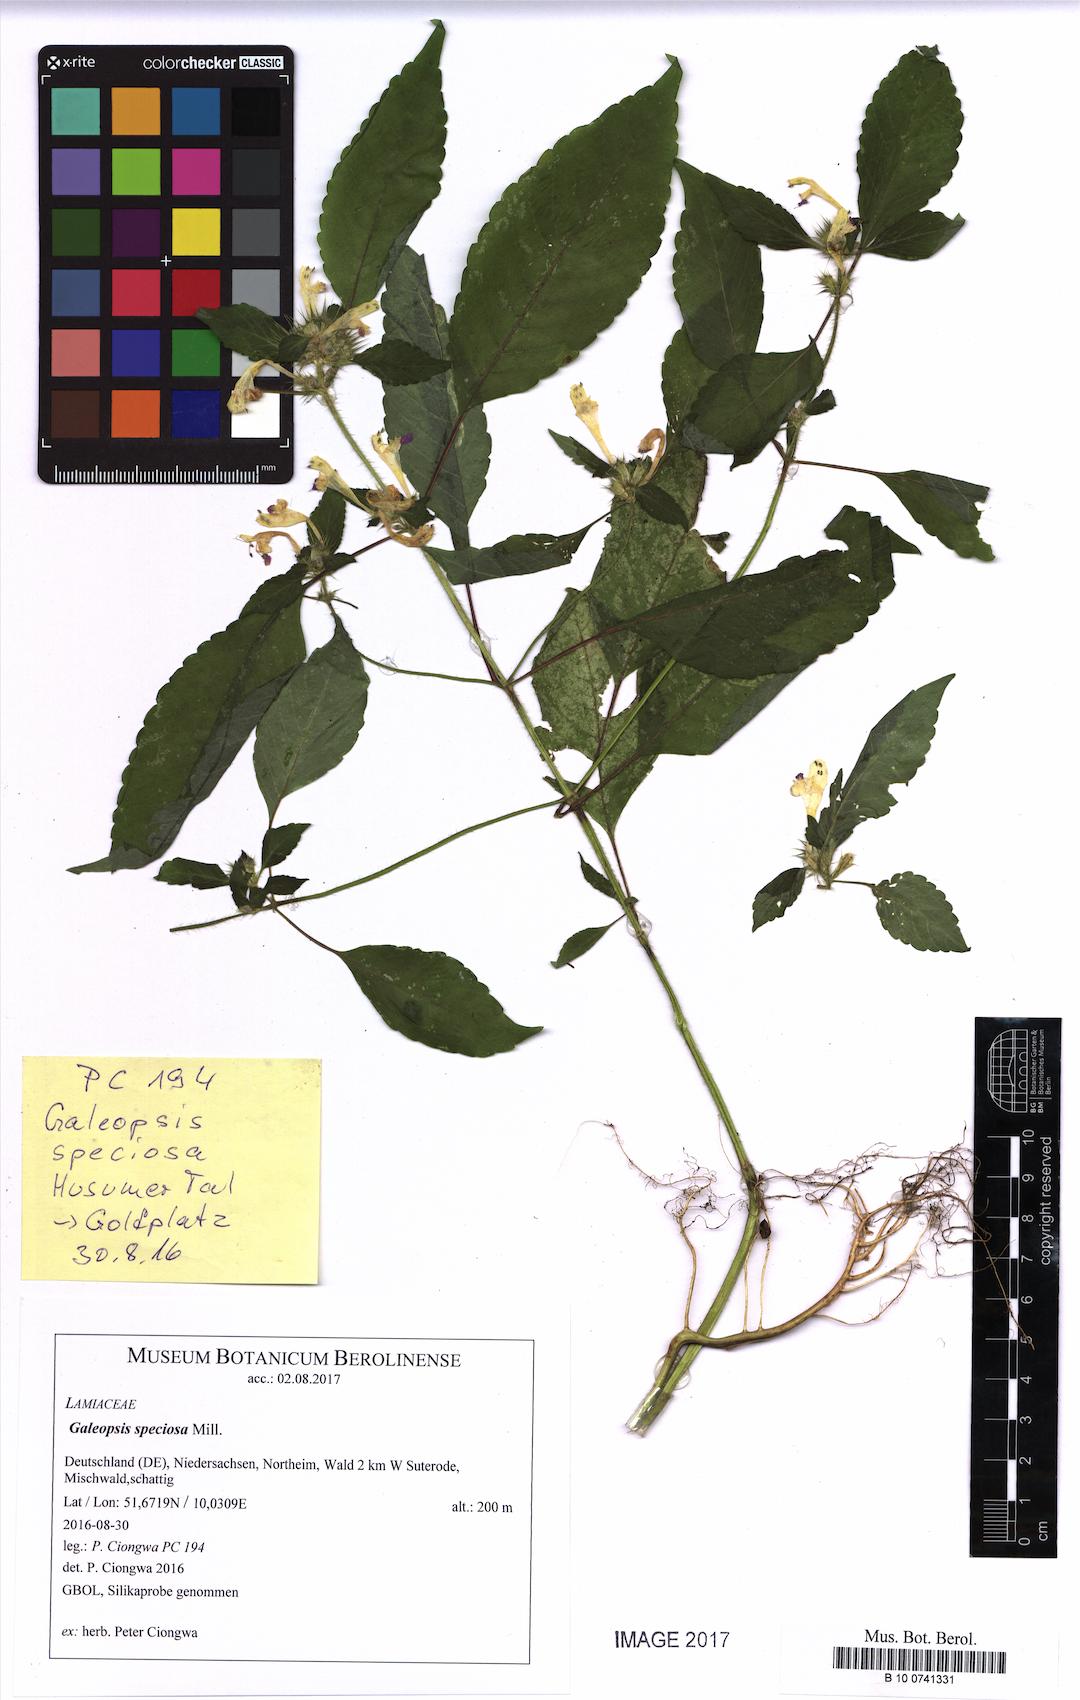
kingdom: Plantae
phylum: Tracheophyta
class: Magnoliopsida
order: Lamiales
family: Lamiaceae
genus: Galeopsis
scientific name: Galeopsis speciosa
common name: Large-flowered hemp-nettle
